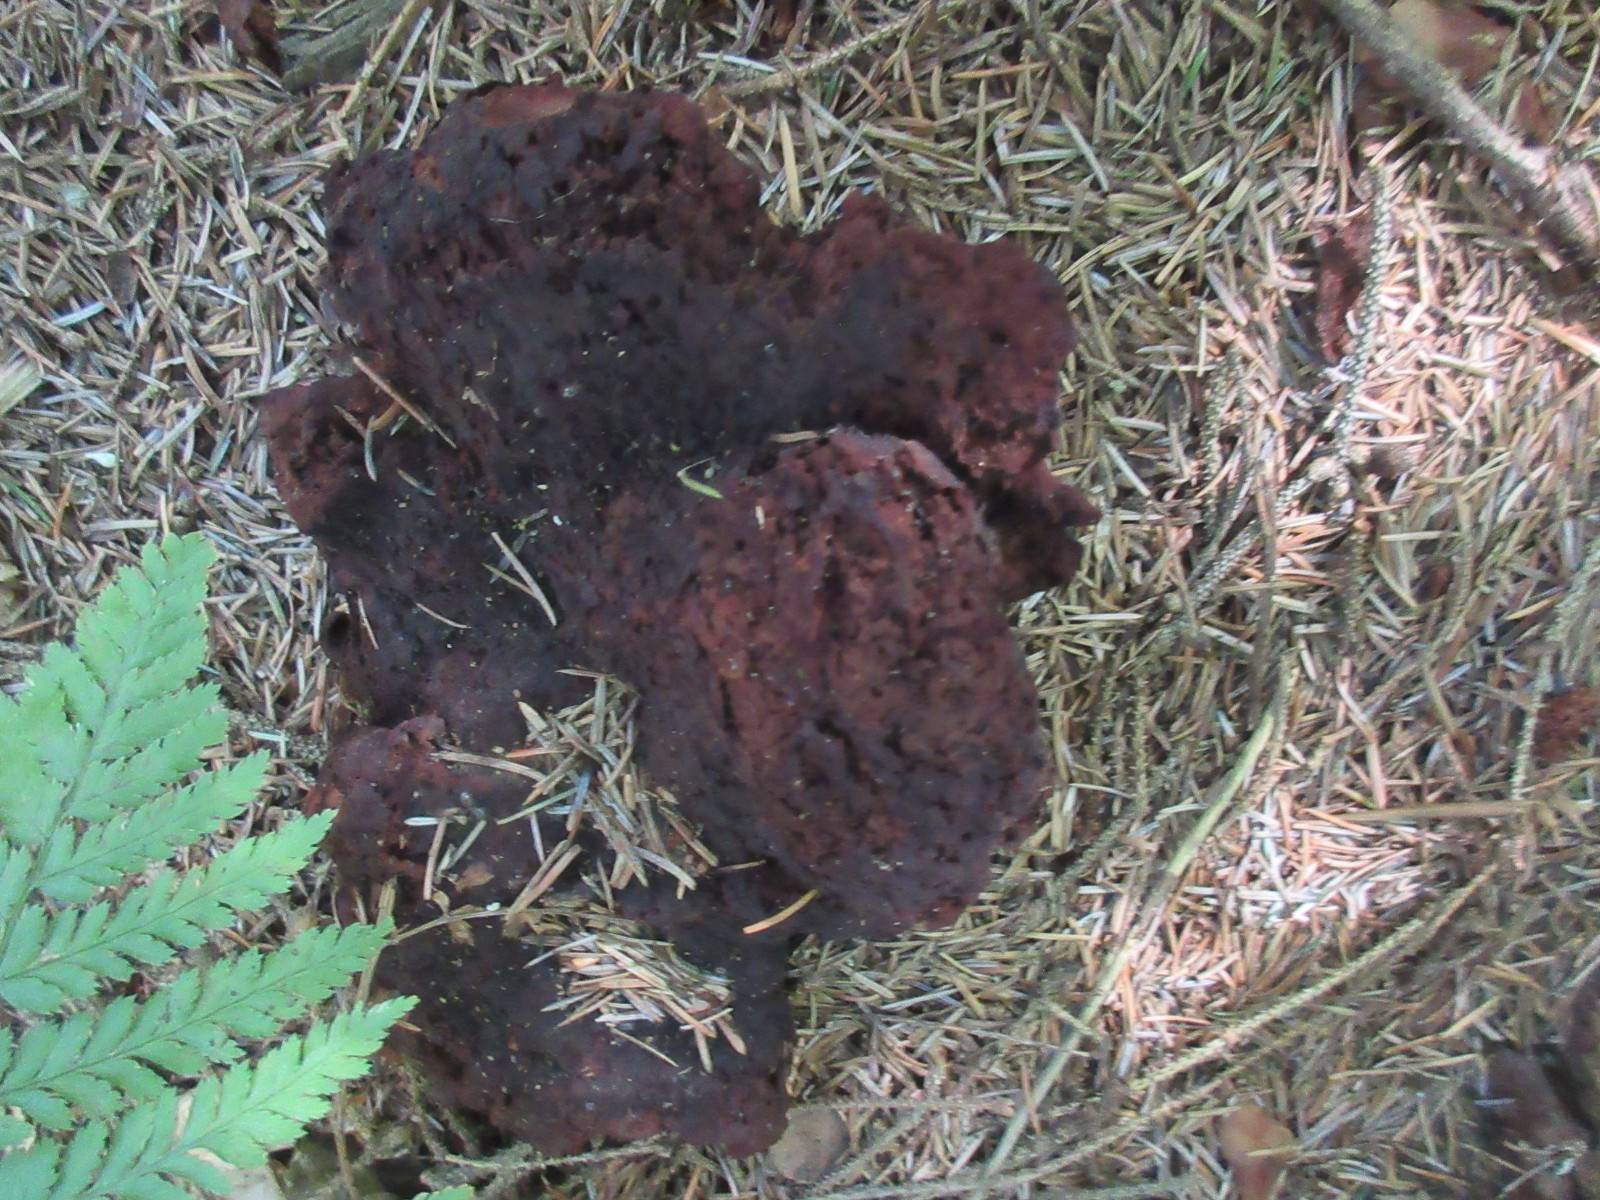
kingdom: Fungi
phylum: Basidiomycota
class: Agaricomycetes
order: Polyporales
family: Laetiporaceae
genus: Phaeolus
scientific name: Phaeolus schweinitzii
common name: brunporesvamp
